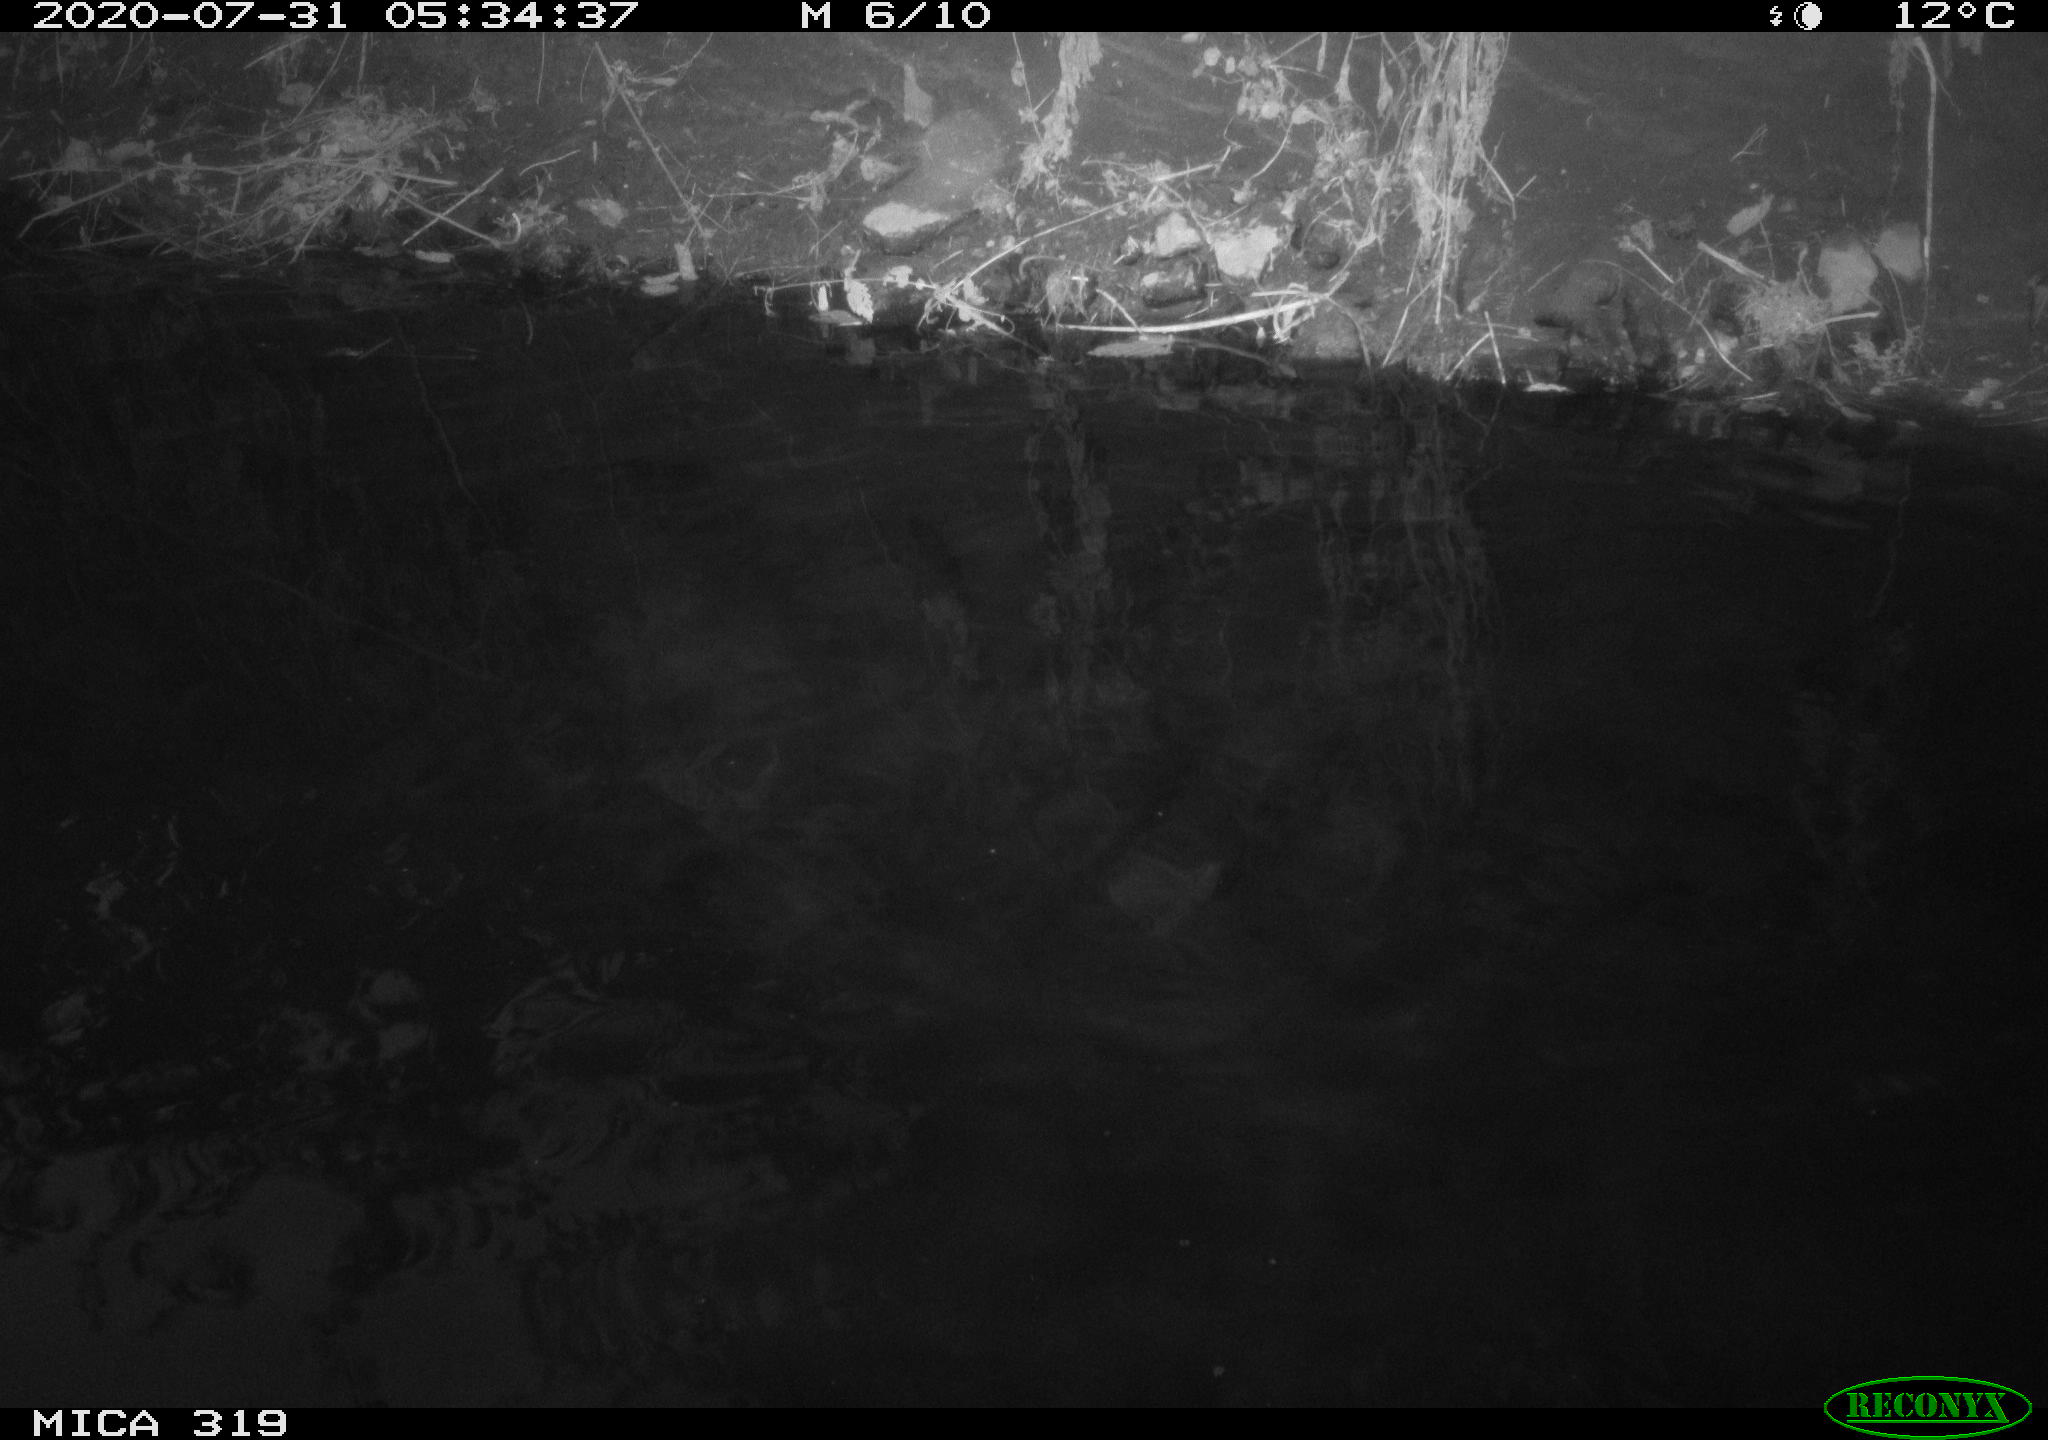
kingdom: Animalia
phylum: Chordata
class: Aves
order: Anseriformes
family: Anatidae
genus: Anas
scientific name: Anas platyrhynchos
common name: Mallard
